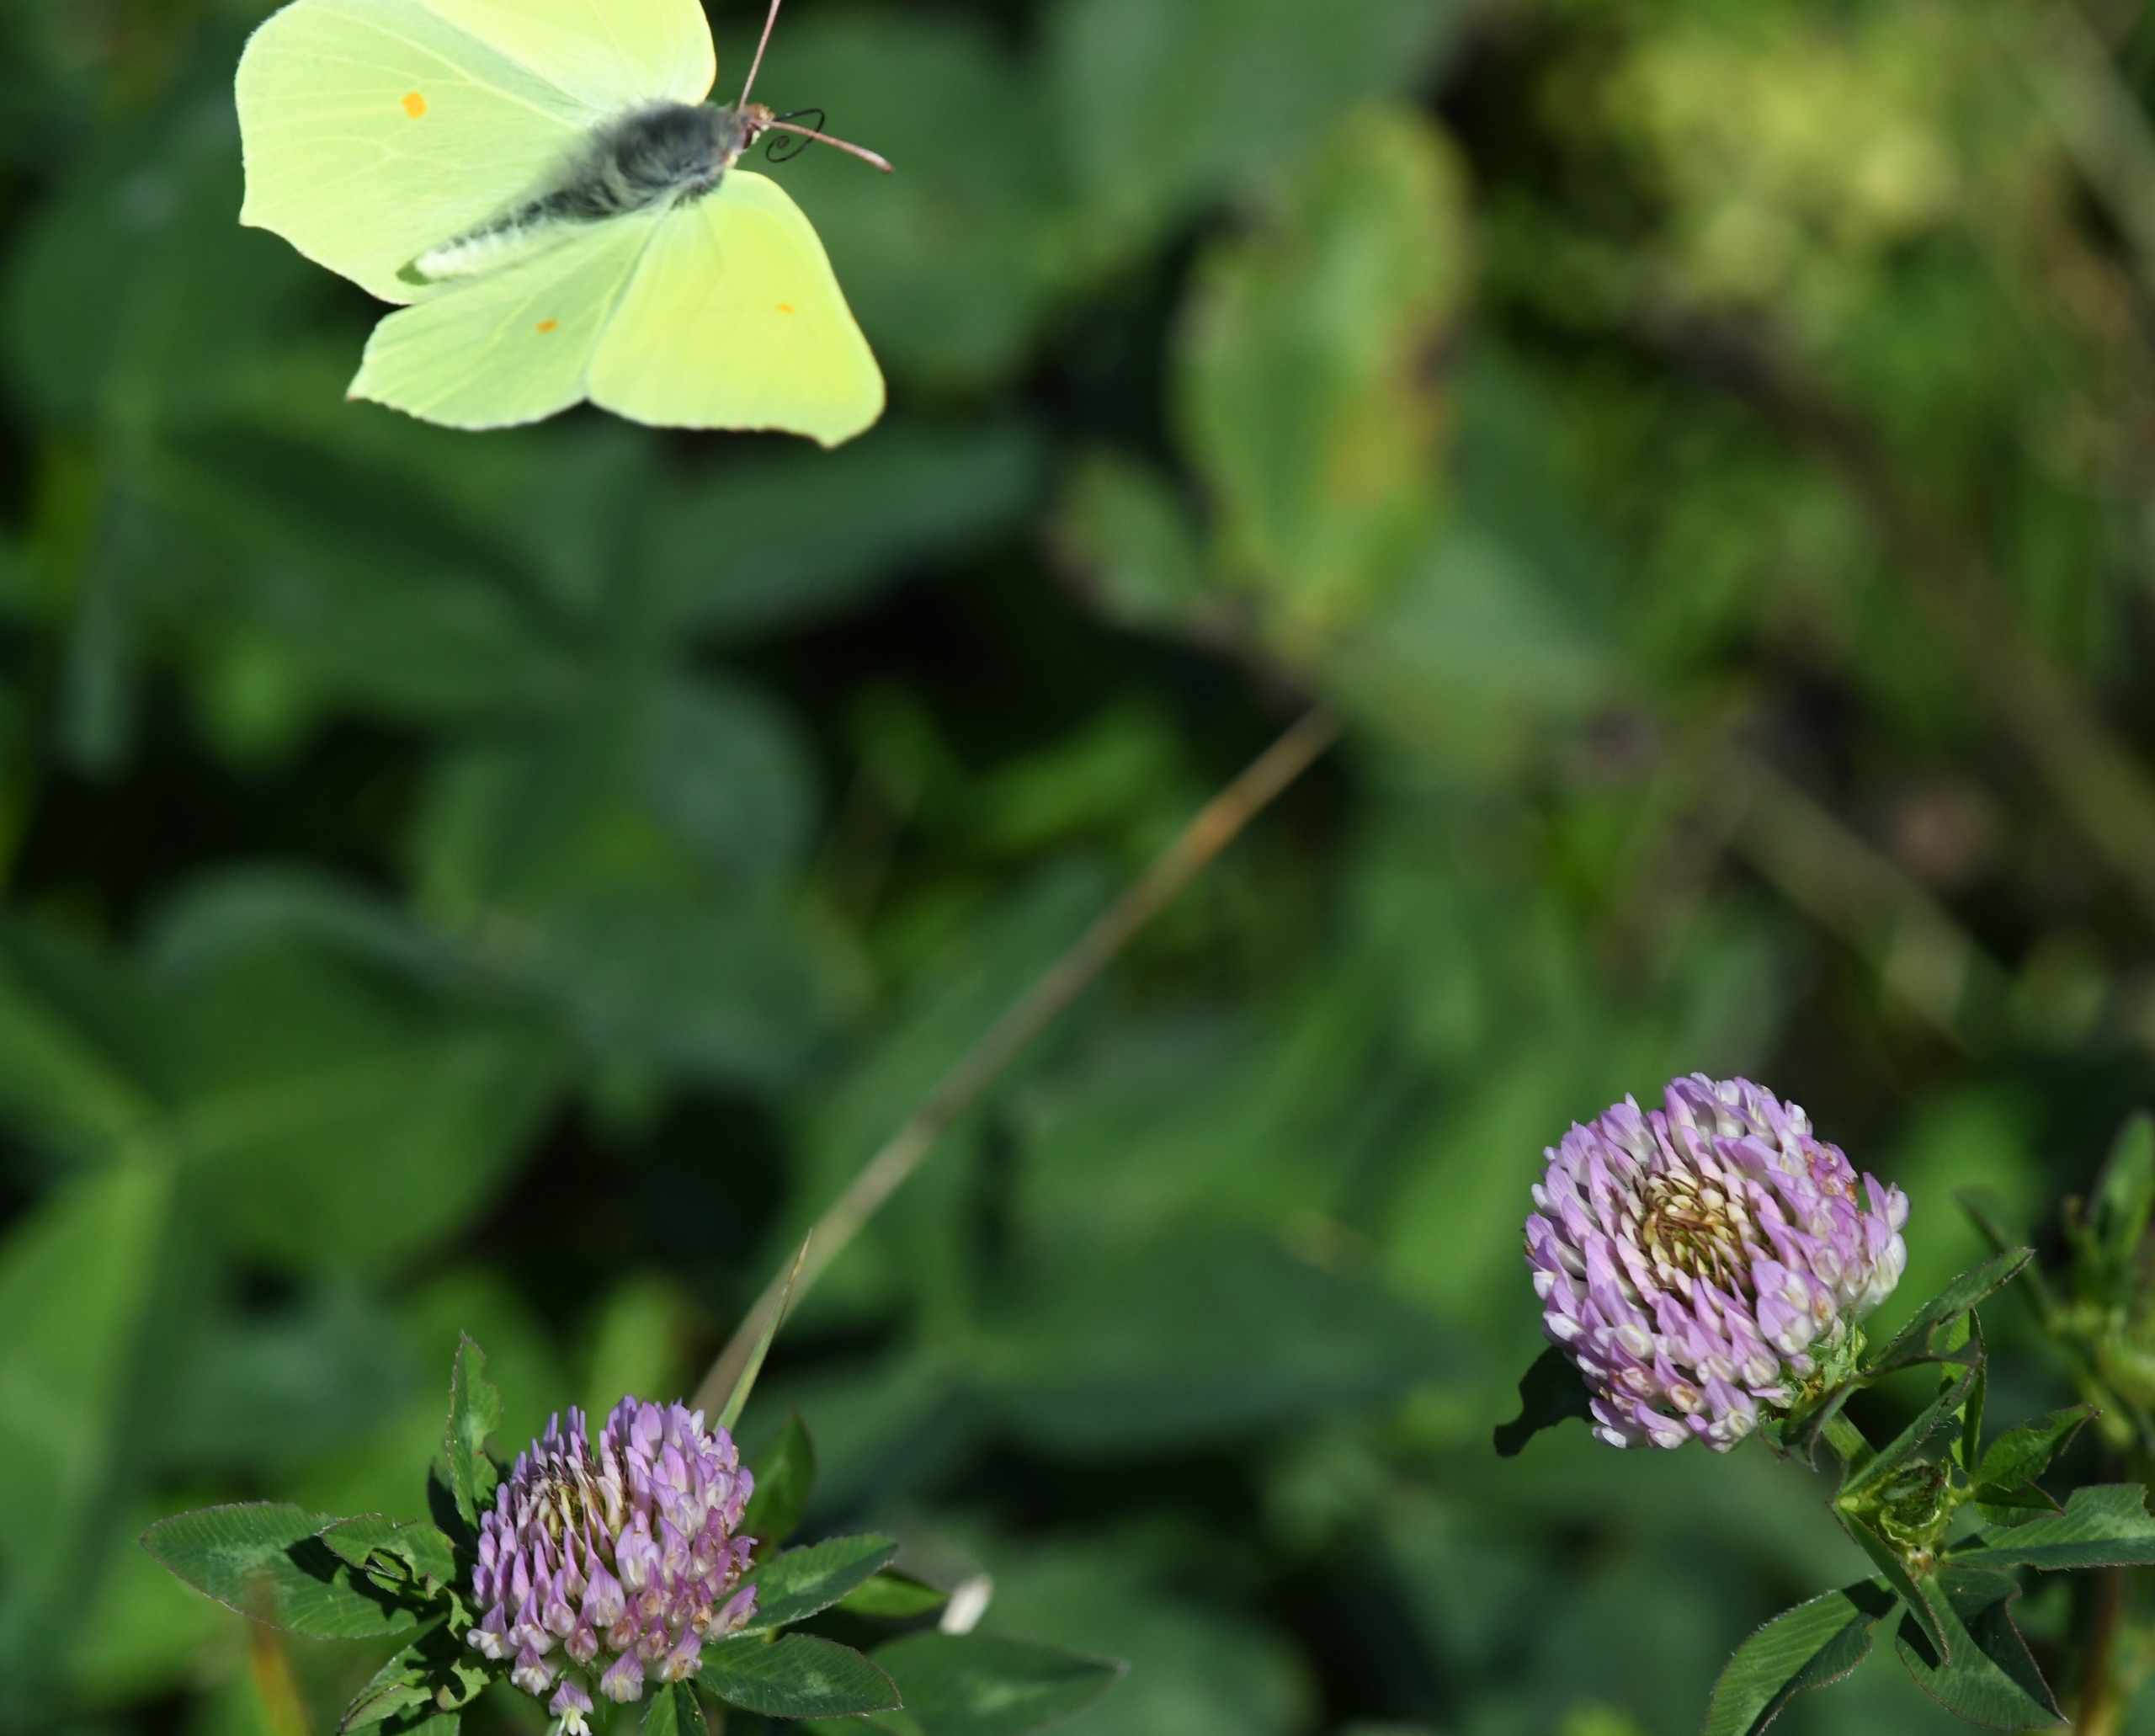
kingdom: Animalia
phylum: Arthropoda
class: Insecta
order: Lepidoptera
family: Pieridae
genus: Gonepteryx
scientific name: Gonepteryx rhamni
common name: Citronsommerfugl
